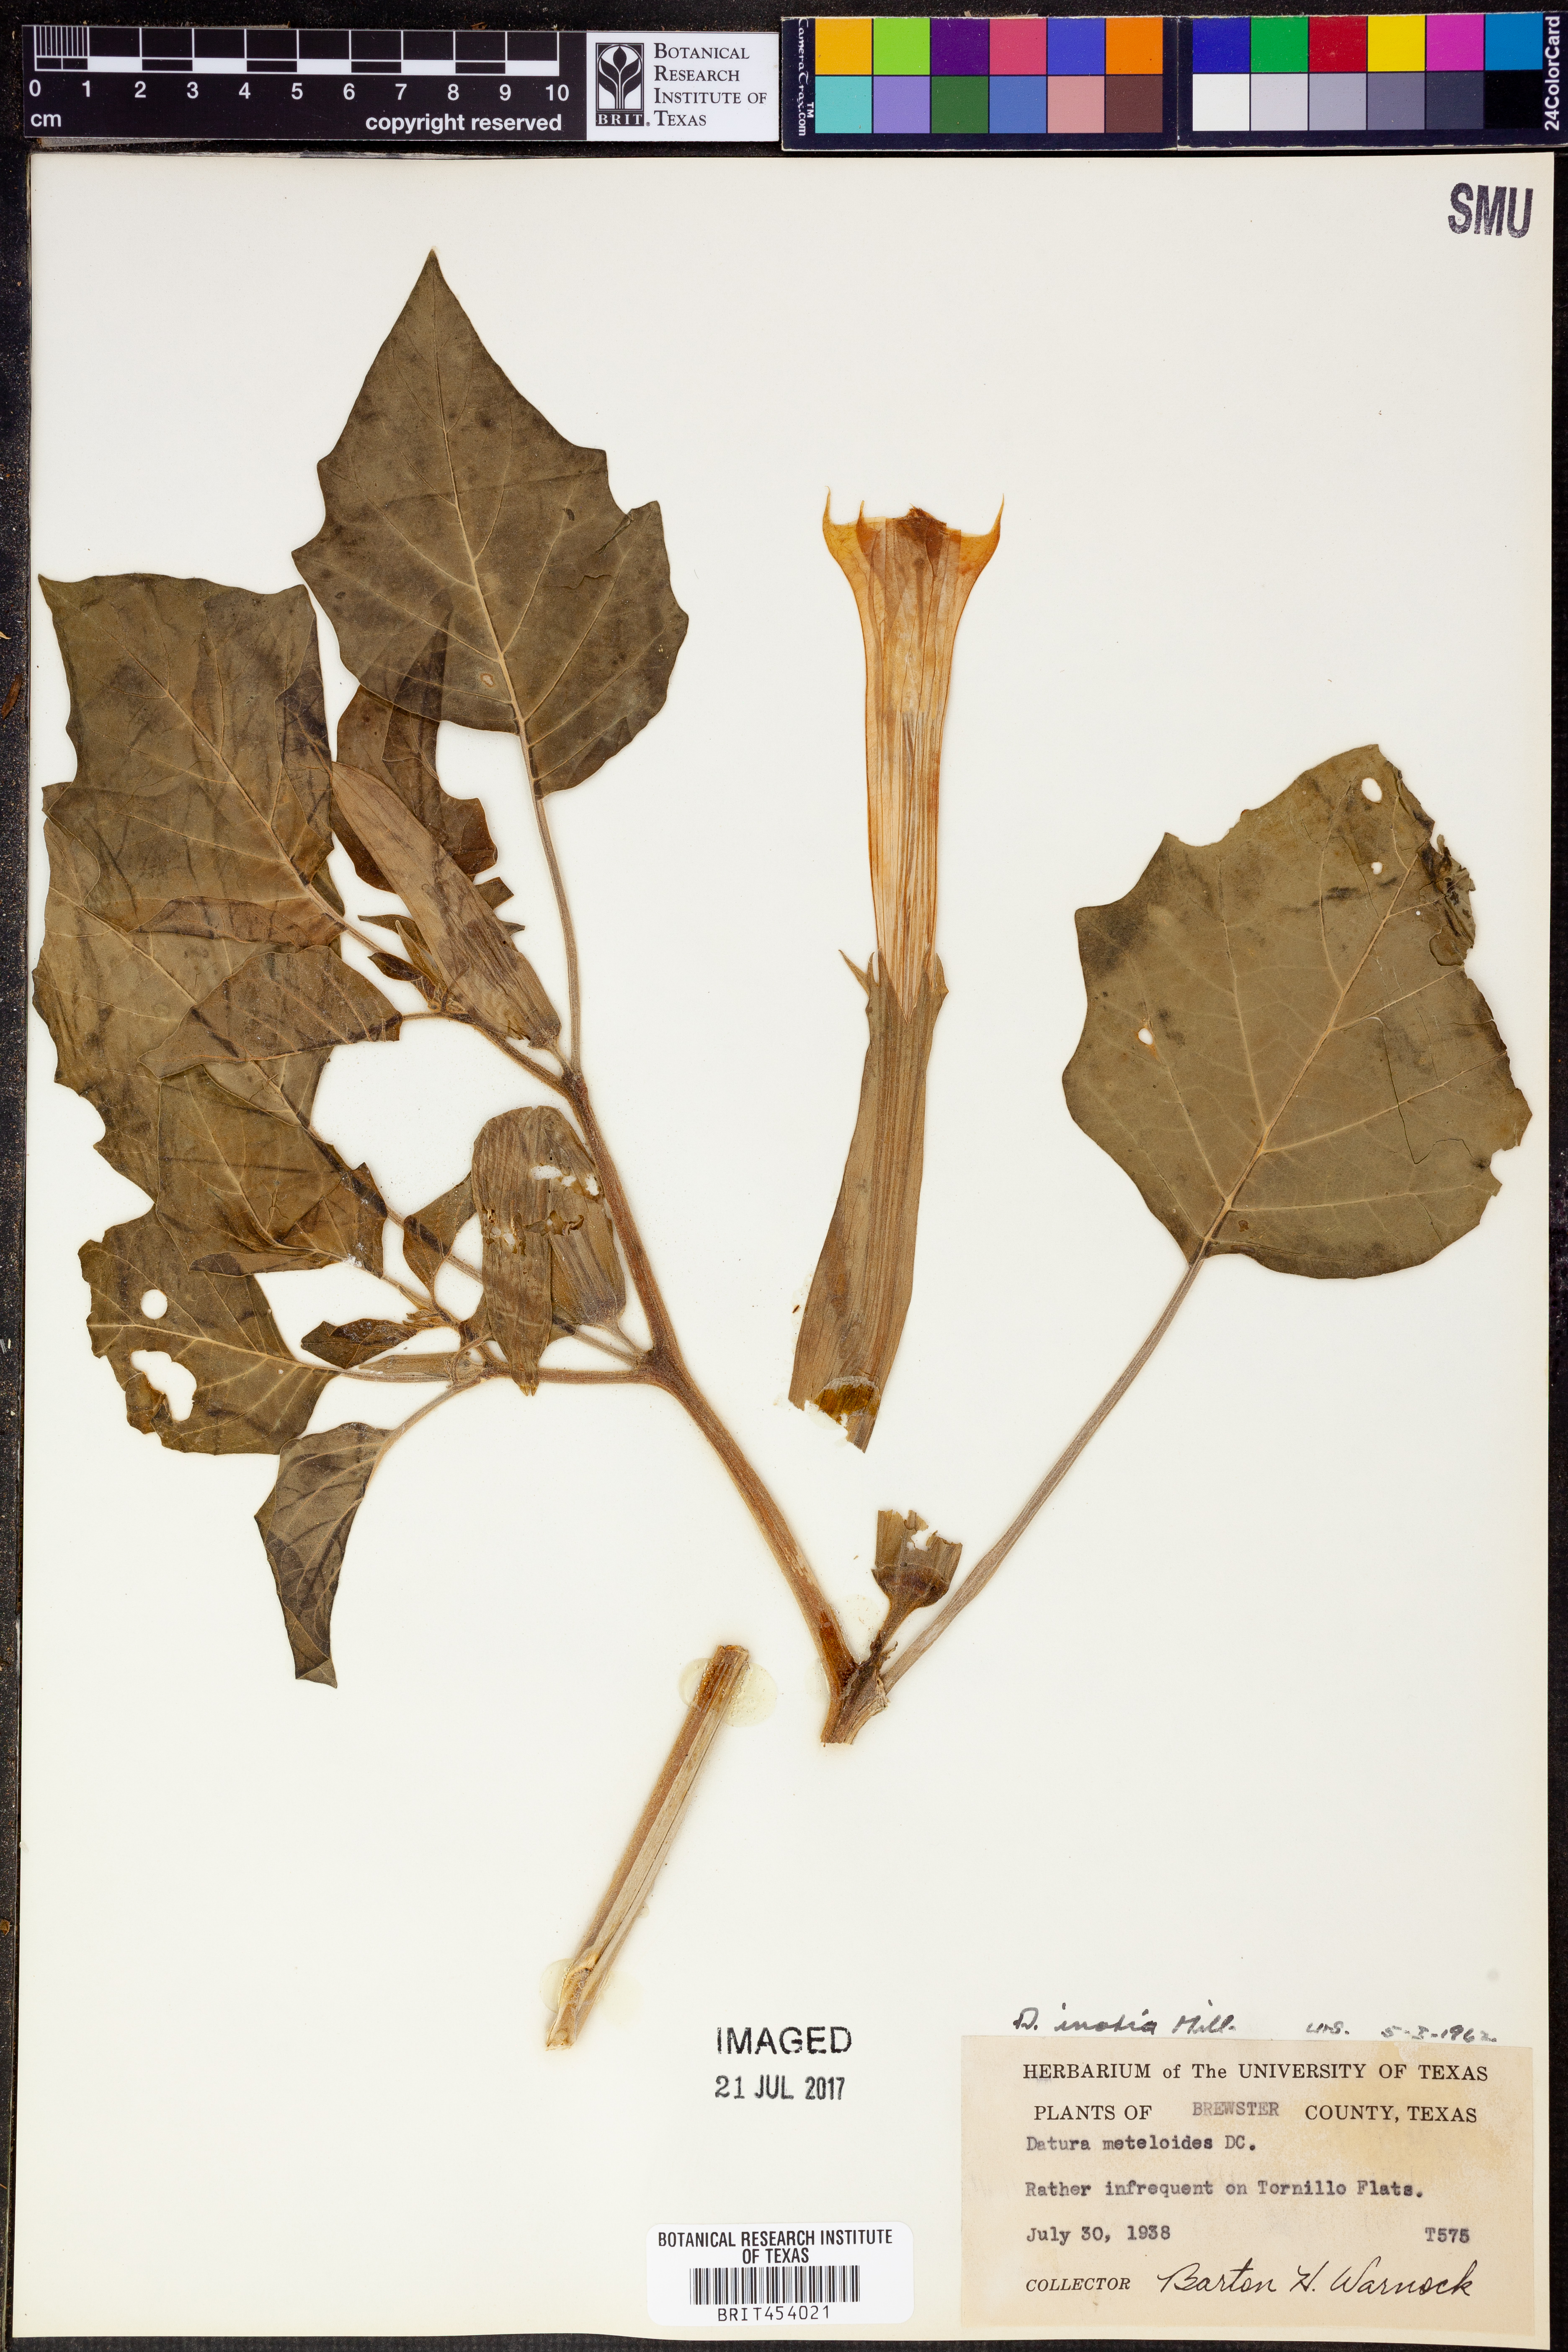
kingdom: Plantae
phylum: Tracheophyta
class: Magnoliopsida
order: Solanales
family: Solanaceae
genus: Datura
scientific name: Datura innoxia
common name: Downy thorn-apple
